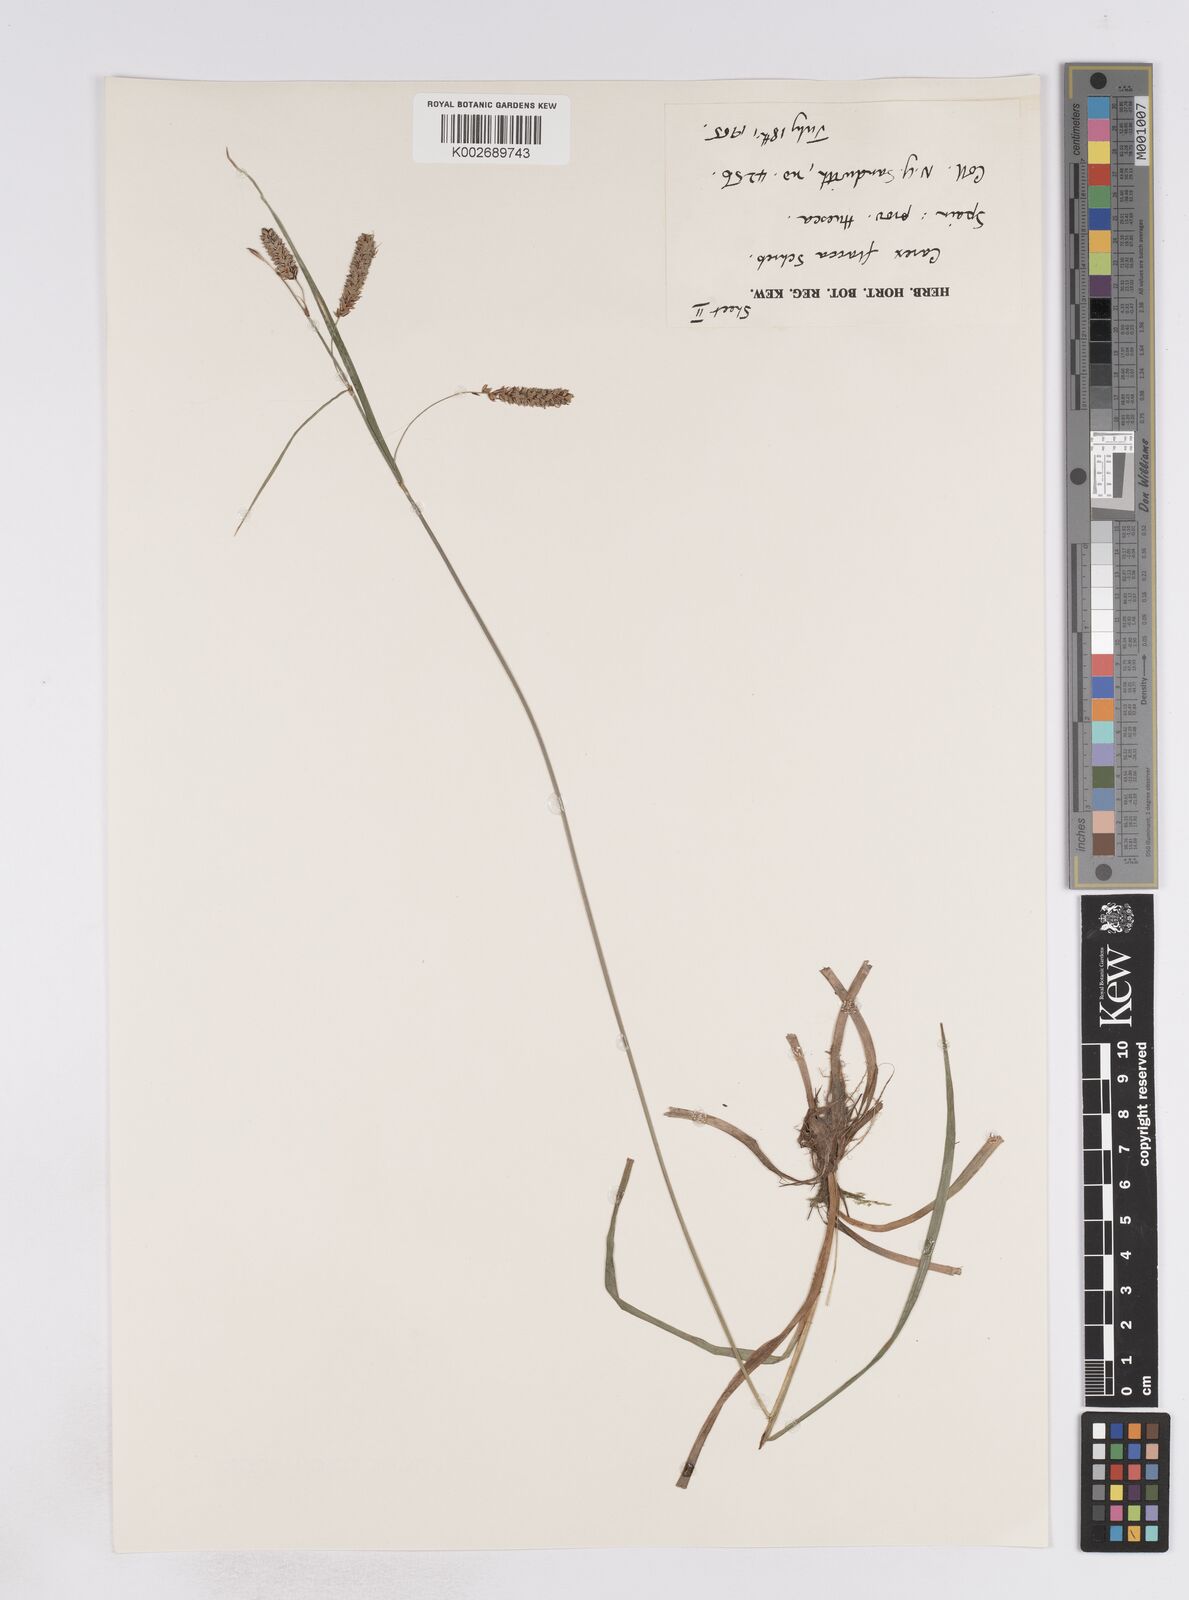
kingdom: Plantae
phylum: Tracheophyta
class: Liliopsida
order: Poales
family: Cyperaceae
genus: Carex
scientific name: Carex flacca
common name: Glaucous sedge
